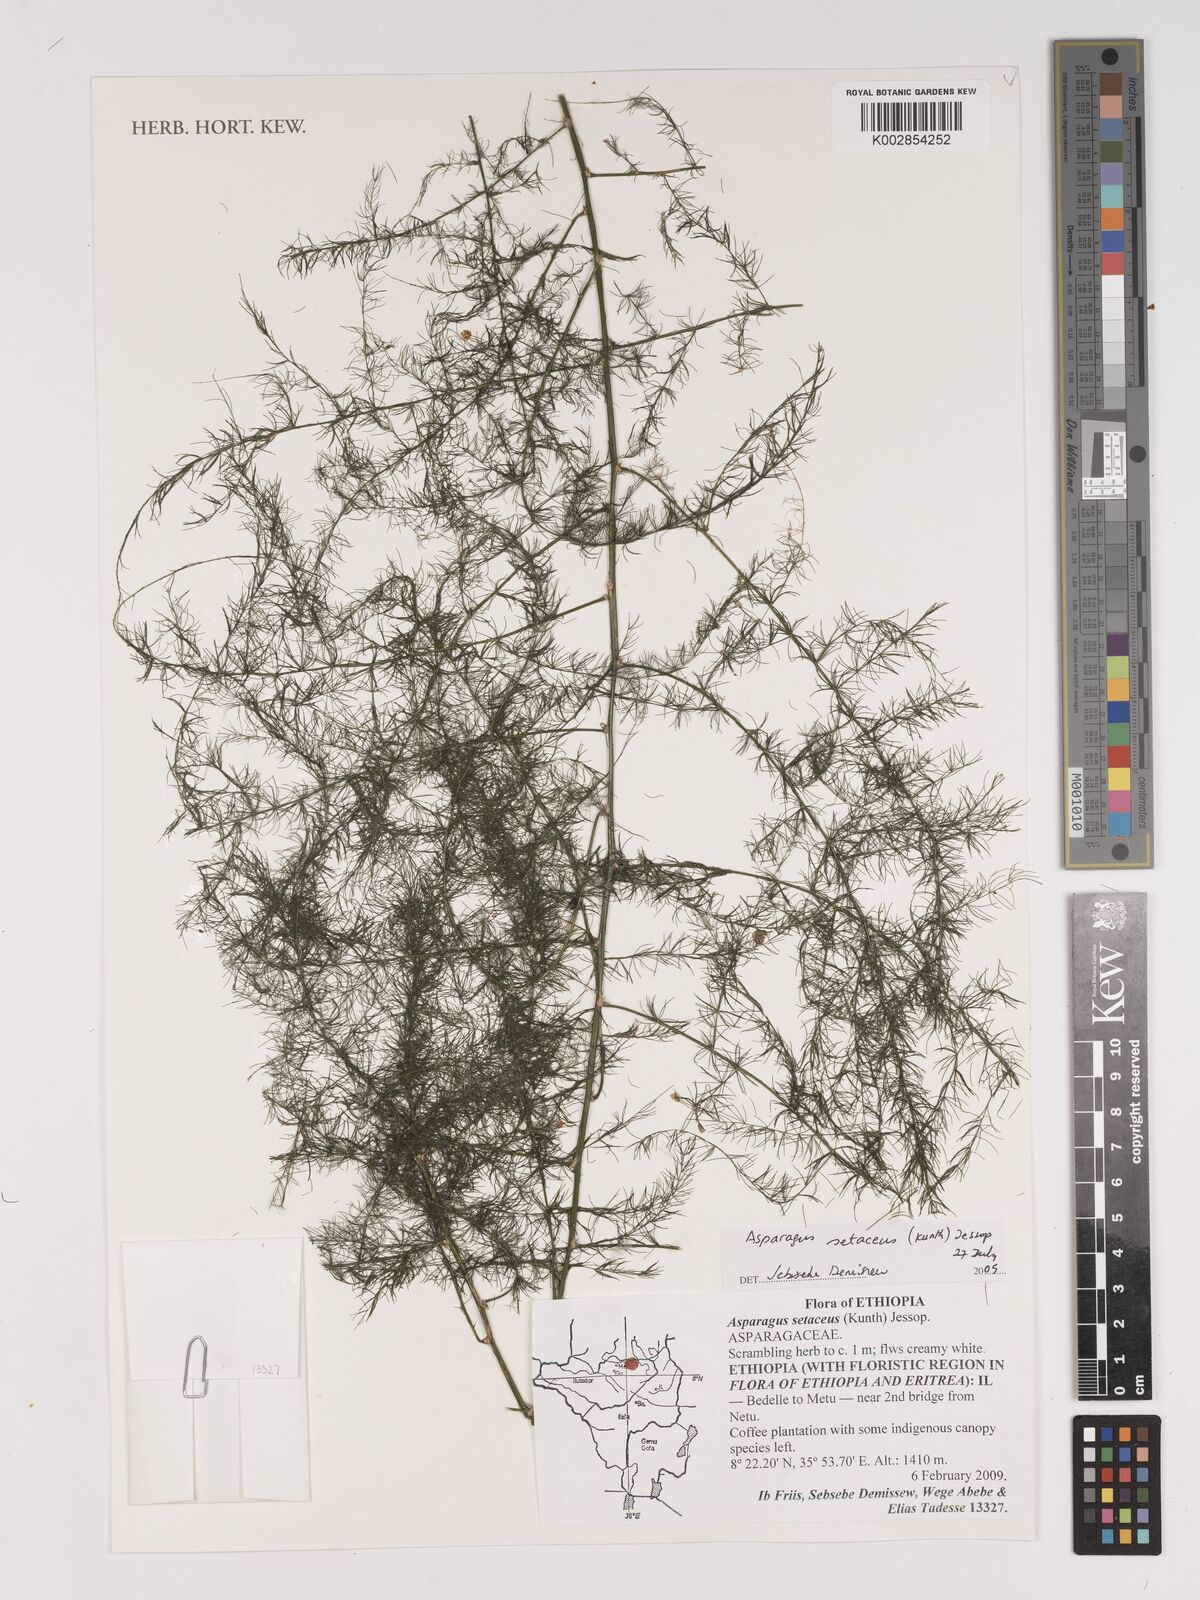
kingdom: Plantae
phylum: Tracheophyta
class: Liliopsida
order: Asparagales
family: Asparagaceae
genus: Asparagus
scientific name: Asparagus setaceus
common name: Common asparagus fern
